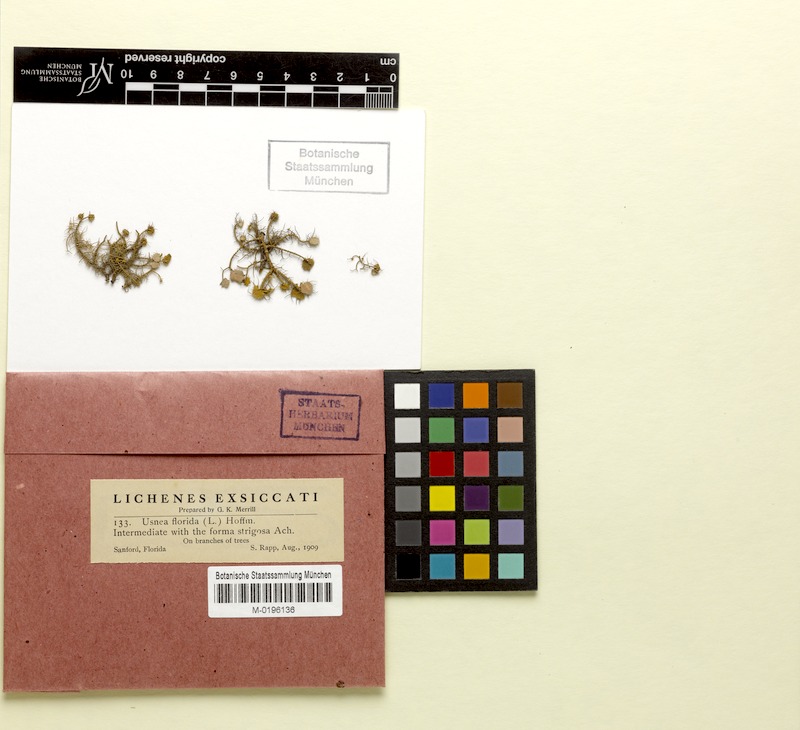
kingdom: Fungi
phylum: Ascomycota
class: Lecanoromycetes
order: Lecanorales
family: Parmeliaceae
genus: Usnea
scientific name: Usnea florida
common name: Witches' whiskers lichen
